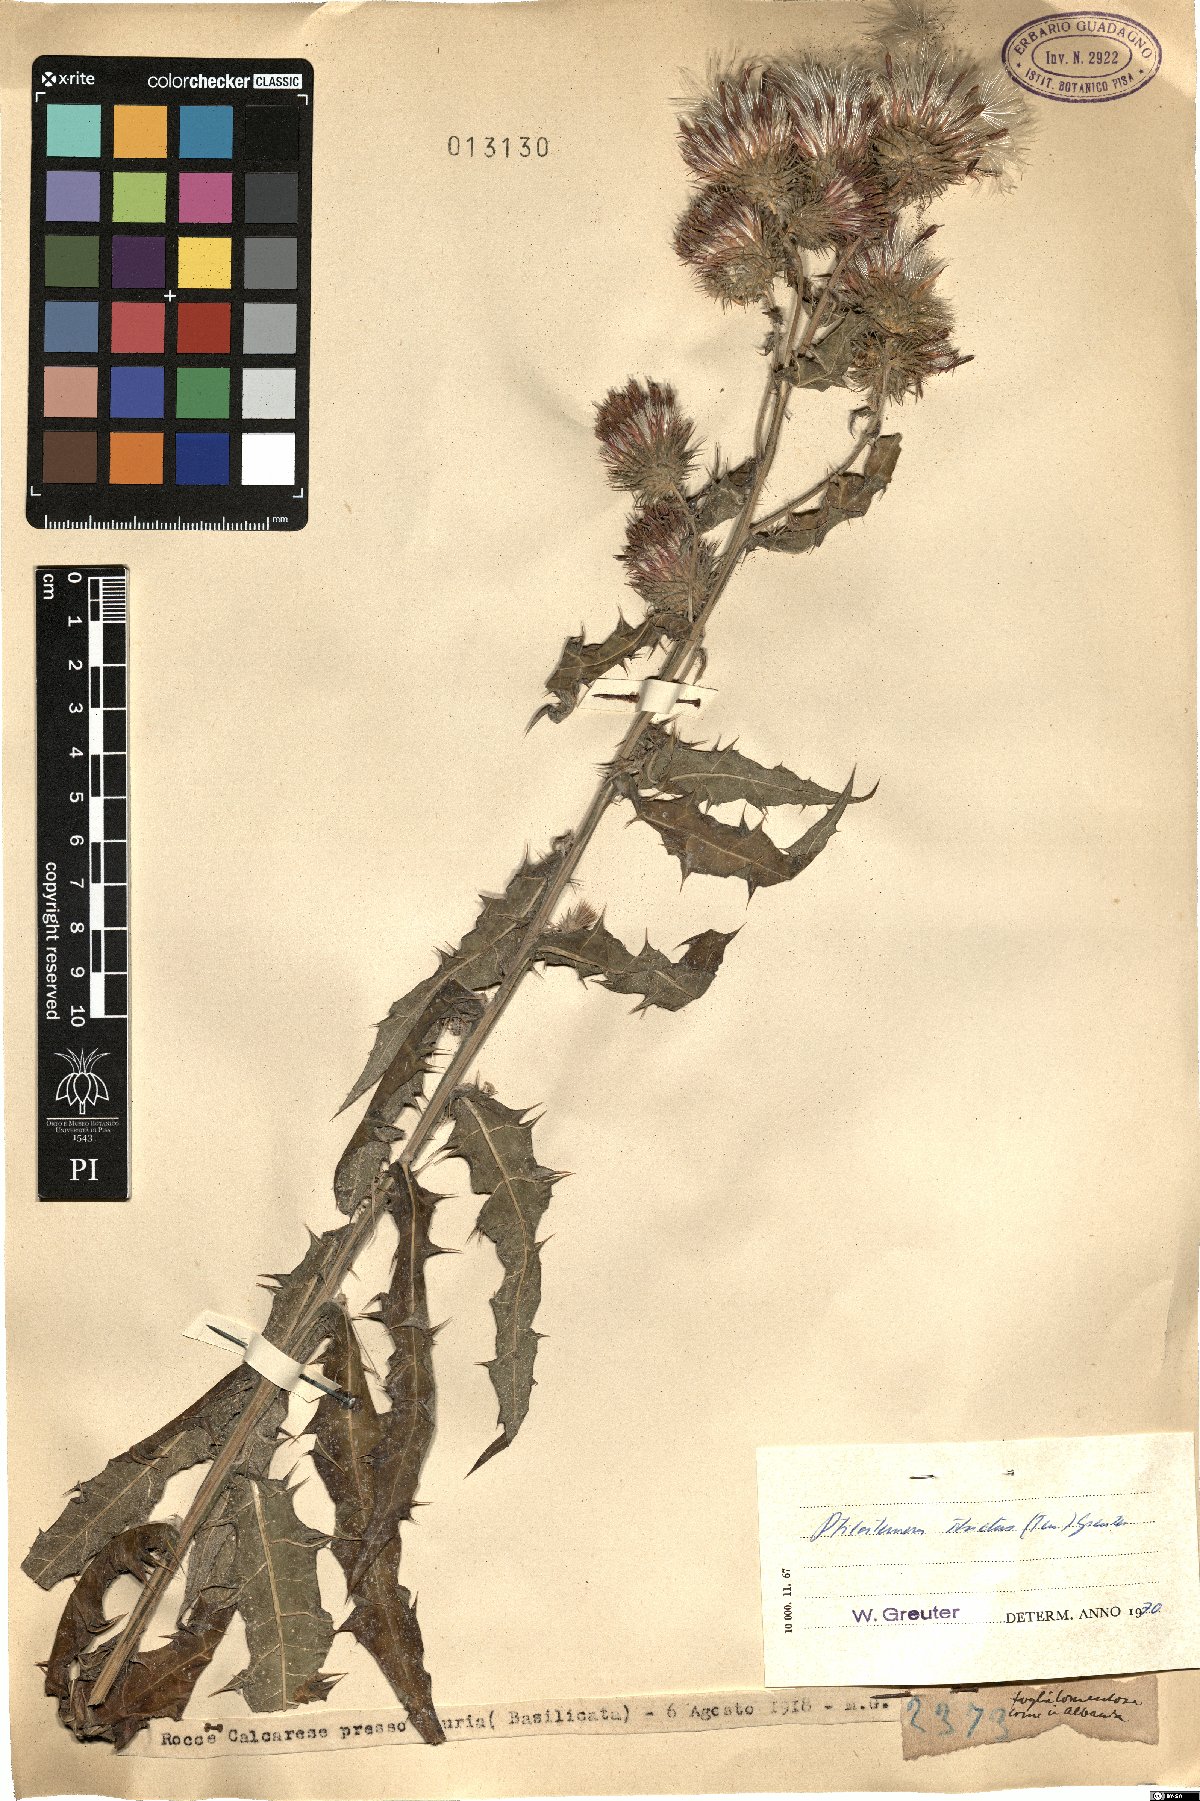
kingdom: Plantae
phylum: Tracheophyta
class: Magnoliopsida
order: Asterales
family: Asteraceae
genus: Ptilostemon
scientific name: Ptilostemon strictus
